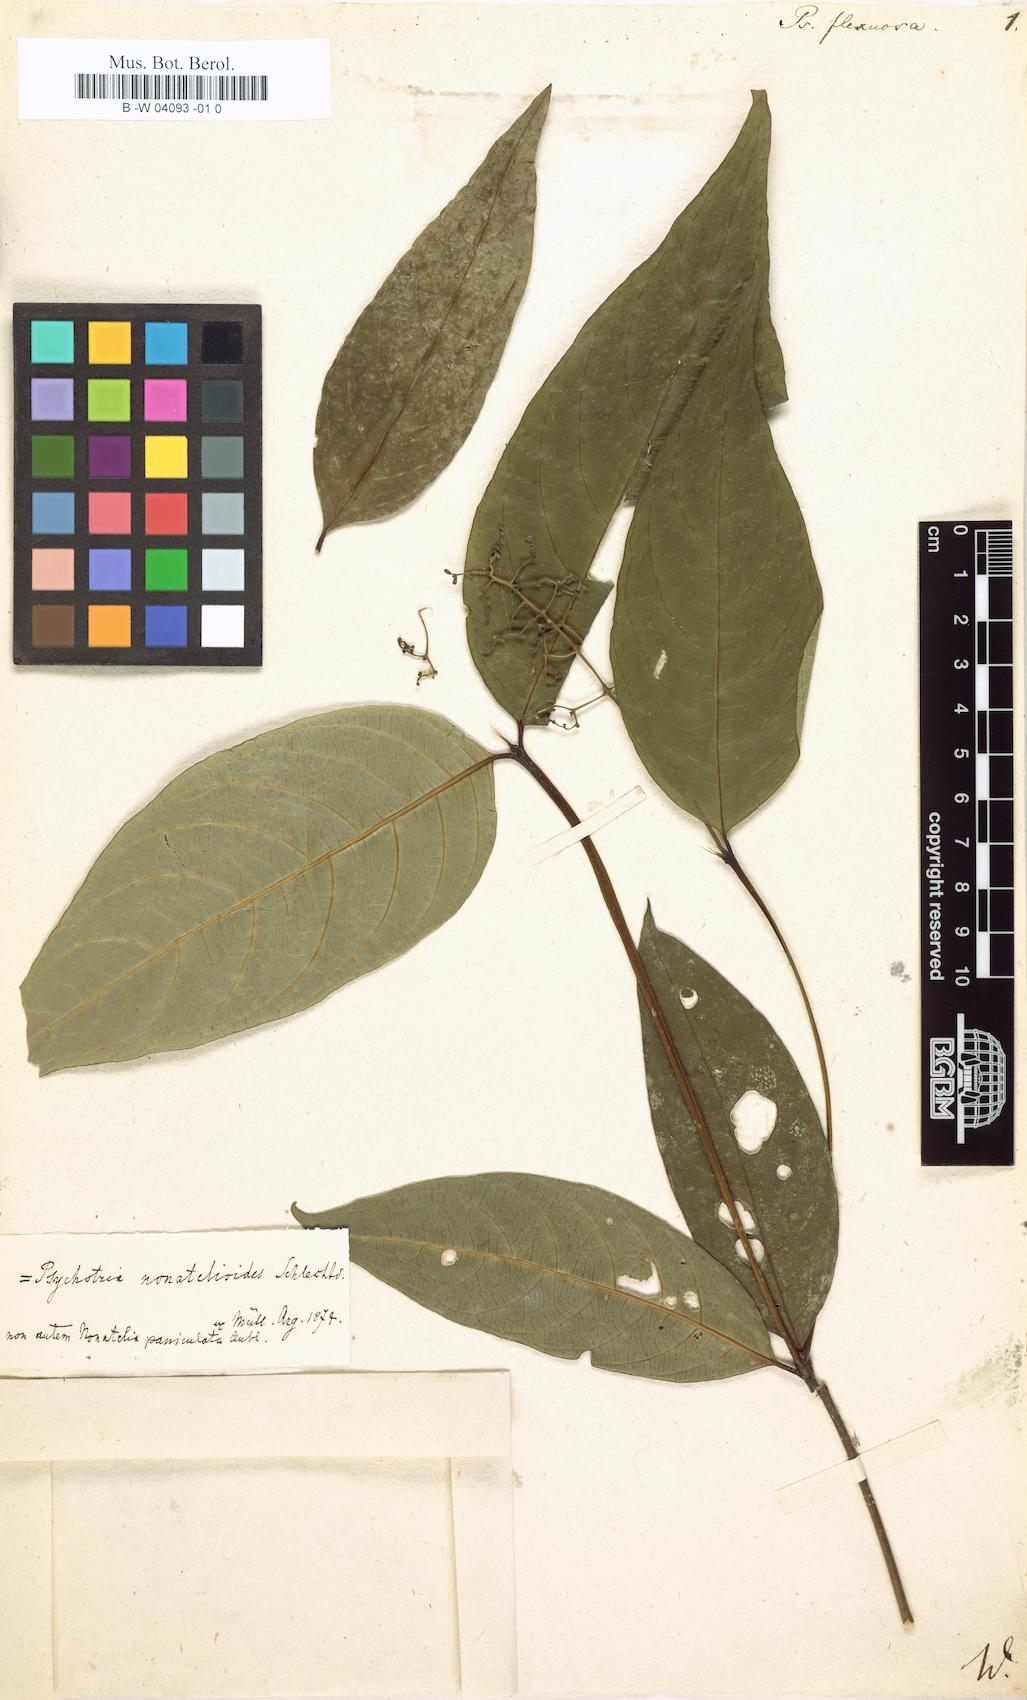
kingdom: Plantae
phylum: Tracheophyta
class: Magnoliopsida
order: Gentianales
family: Rubiaceae
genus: Palicourea
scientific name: Palicourea paniculata
